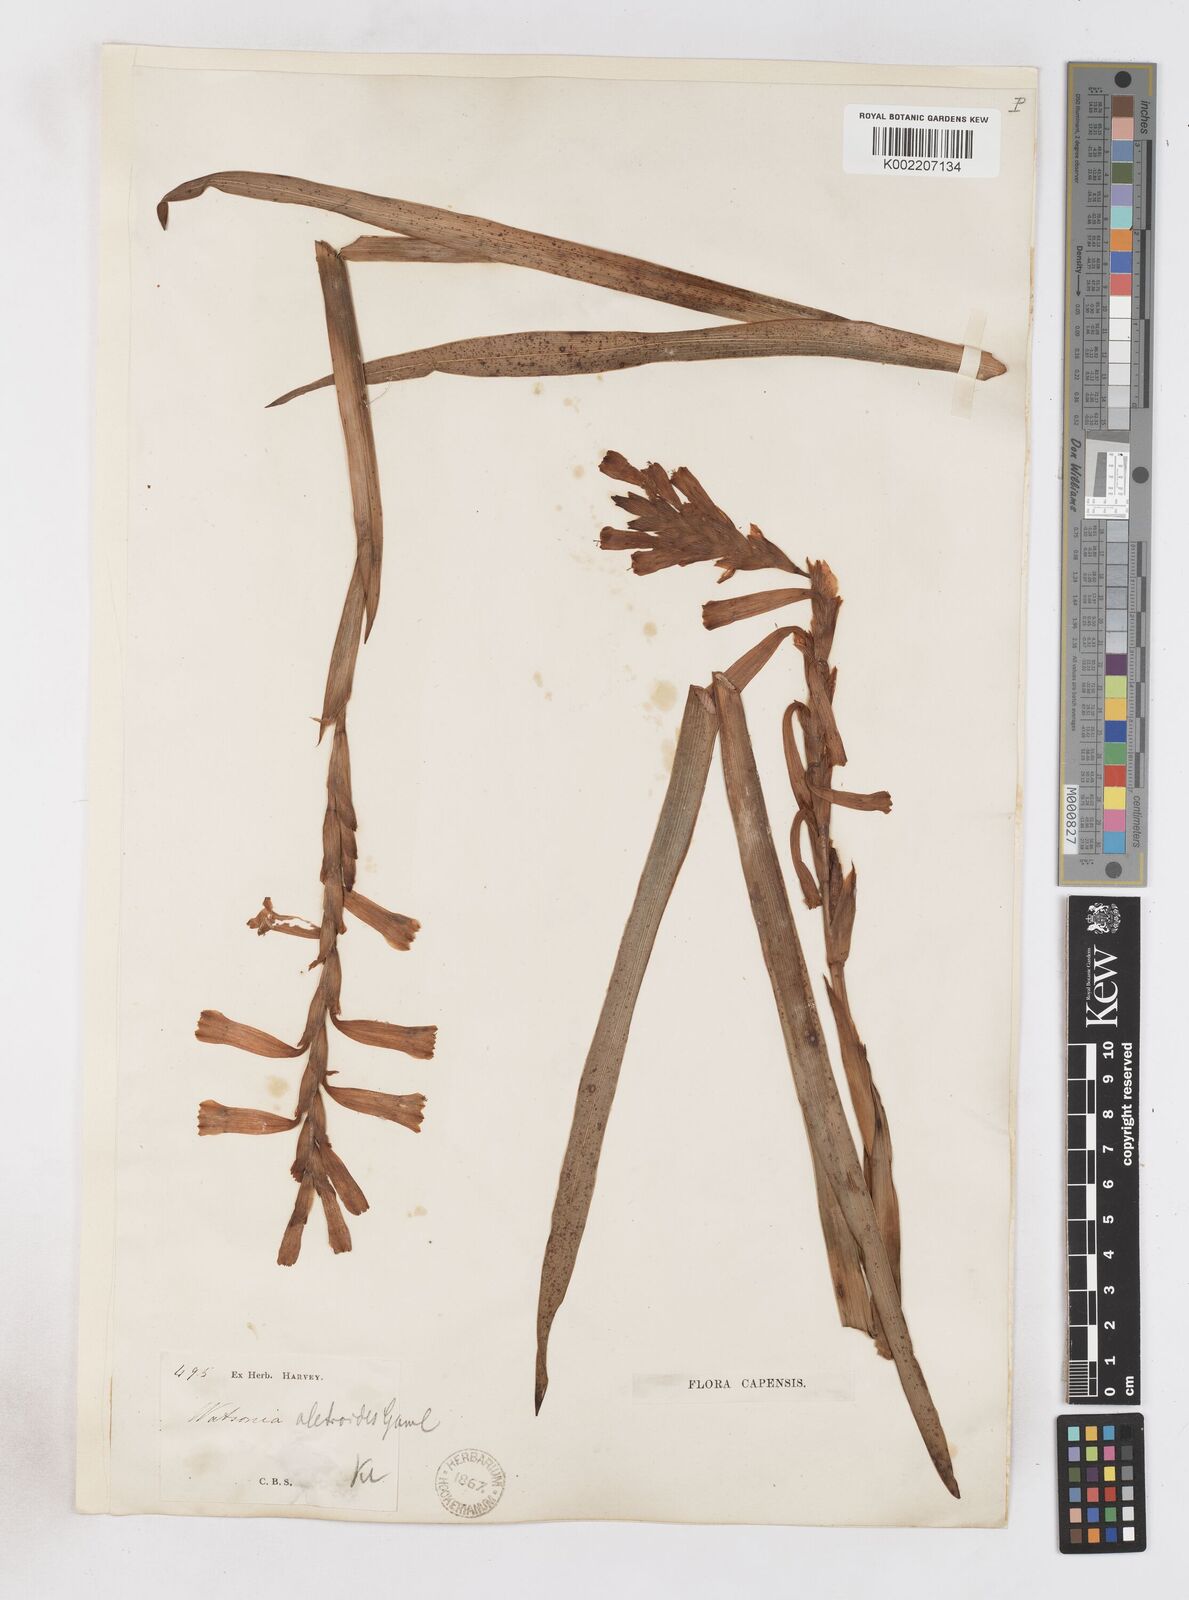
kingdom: Plantae
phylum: Tracheophyta
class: Liliopsida
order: Asparagales
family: Iridaceae
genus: Watsonia
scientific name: Watsonia aletroides
